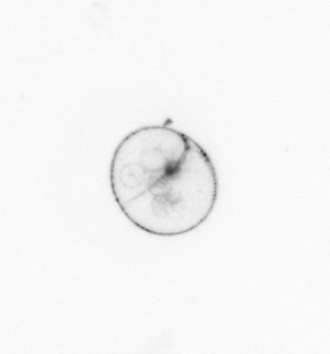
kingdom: Chromista
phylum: Myzozoa
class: Dinophyceae
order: Noctilucales
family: Noctilucaceae
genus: Noctiluca
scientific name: Noctiluca scintillans
